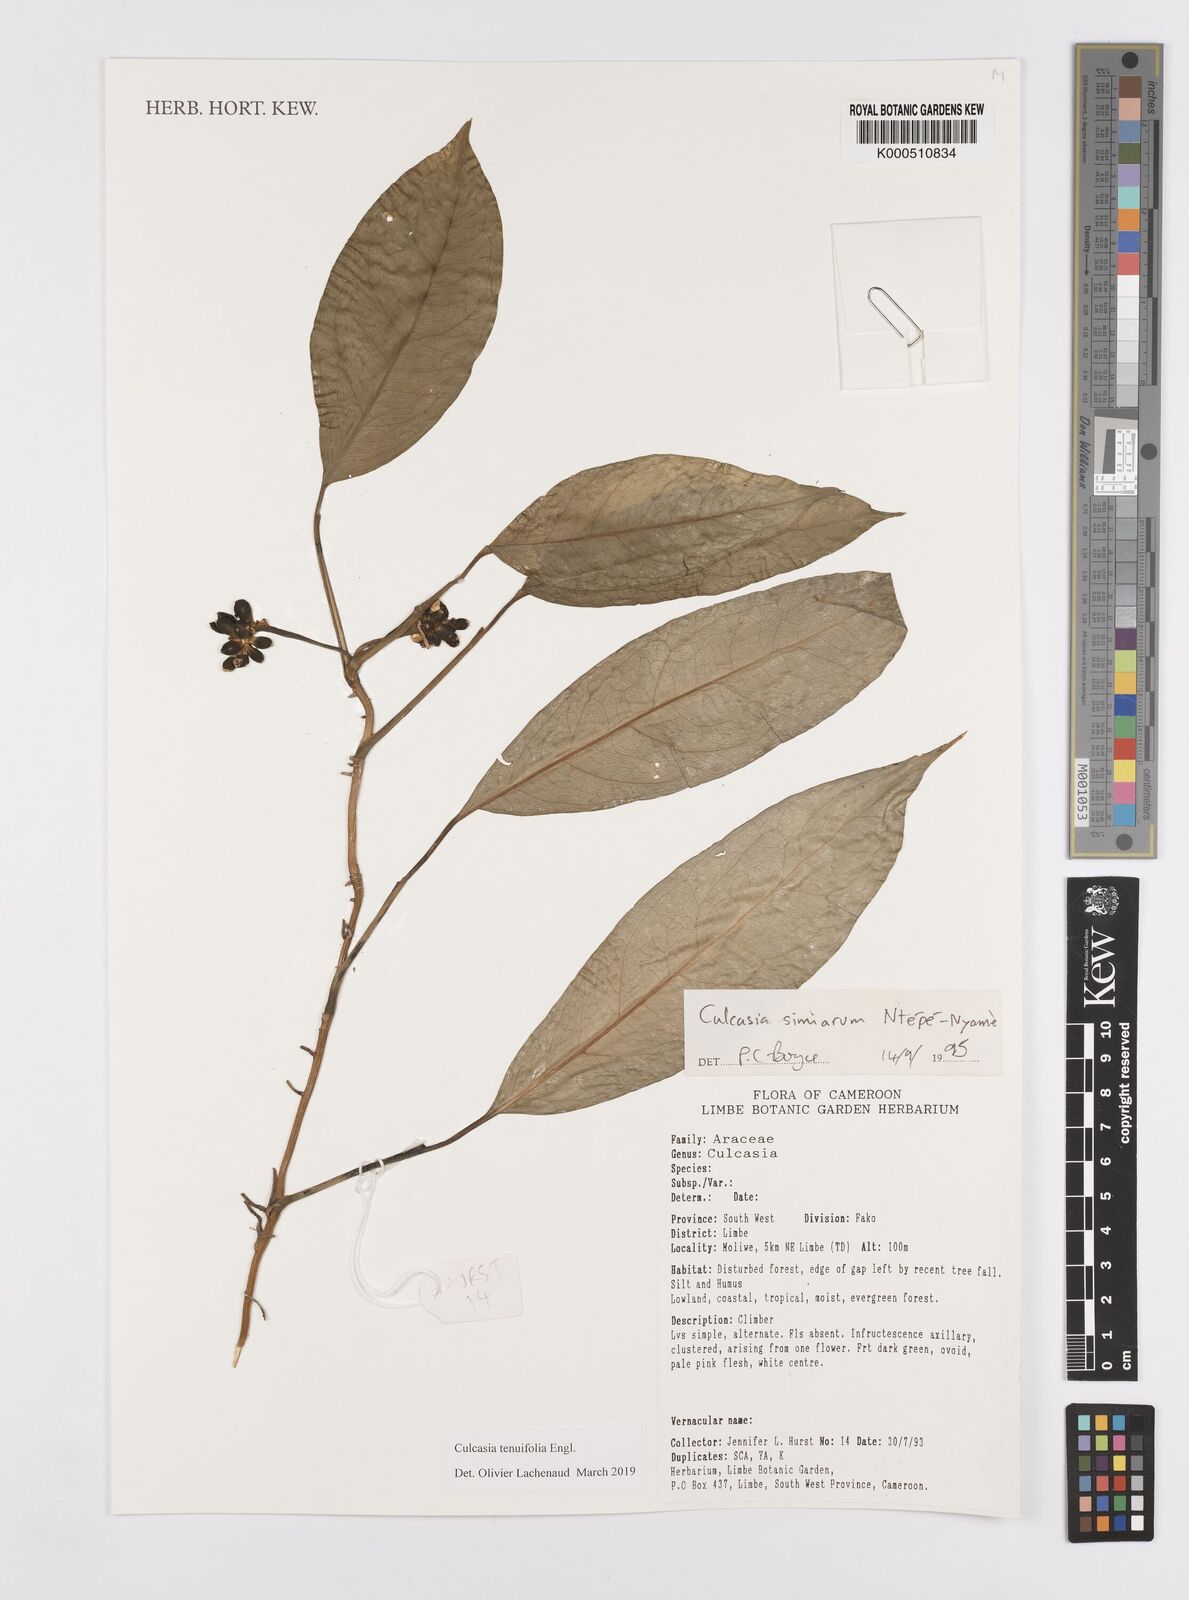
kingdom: Plantae
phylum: Tracheophyta
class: Liliopsida
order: Alismatales
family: Araceae
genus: Culcasia
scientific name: Culcasia tenuifolia
